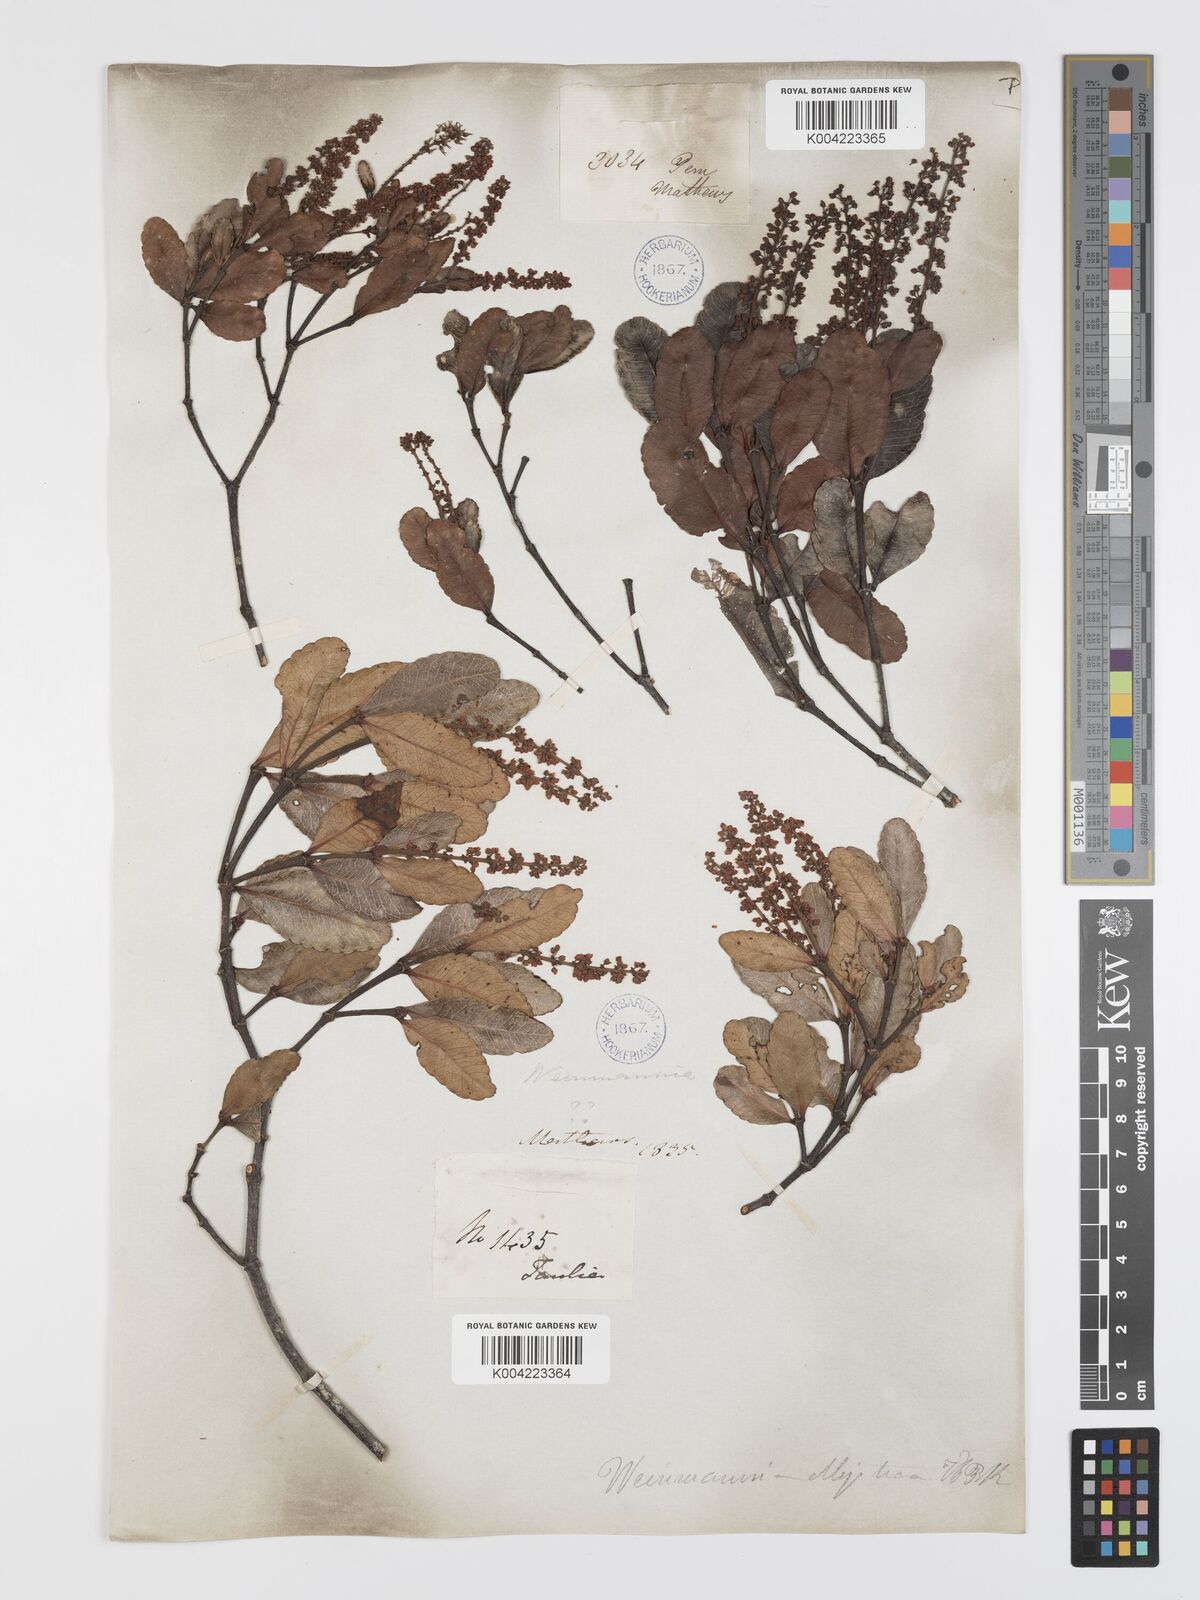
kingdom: Plantae
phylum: Tracheophyta
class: Magnoliopsida
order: Oxalidales
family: Cunoniaceae
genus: Weinmannia
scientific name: Weinmannia elliptica
